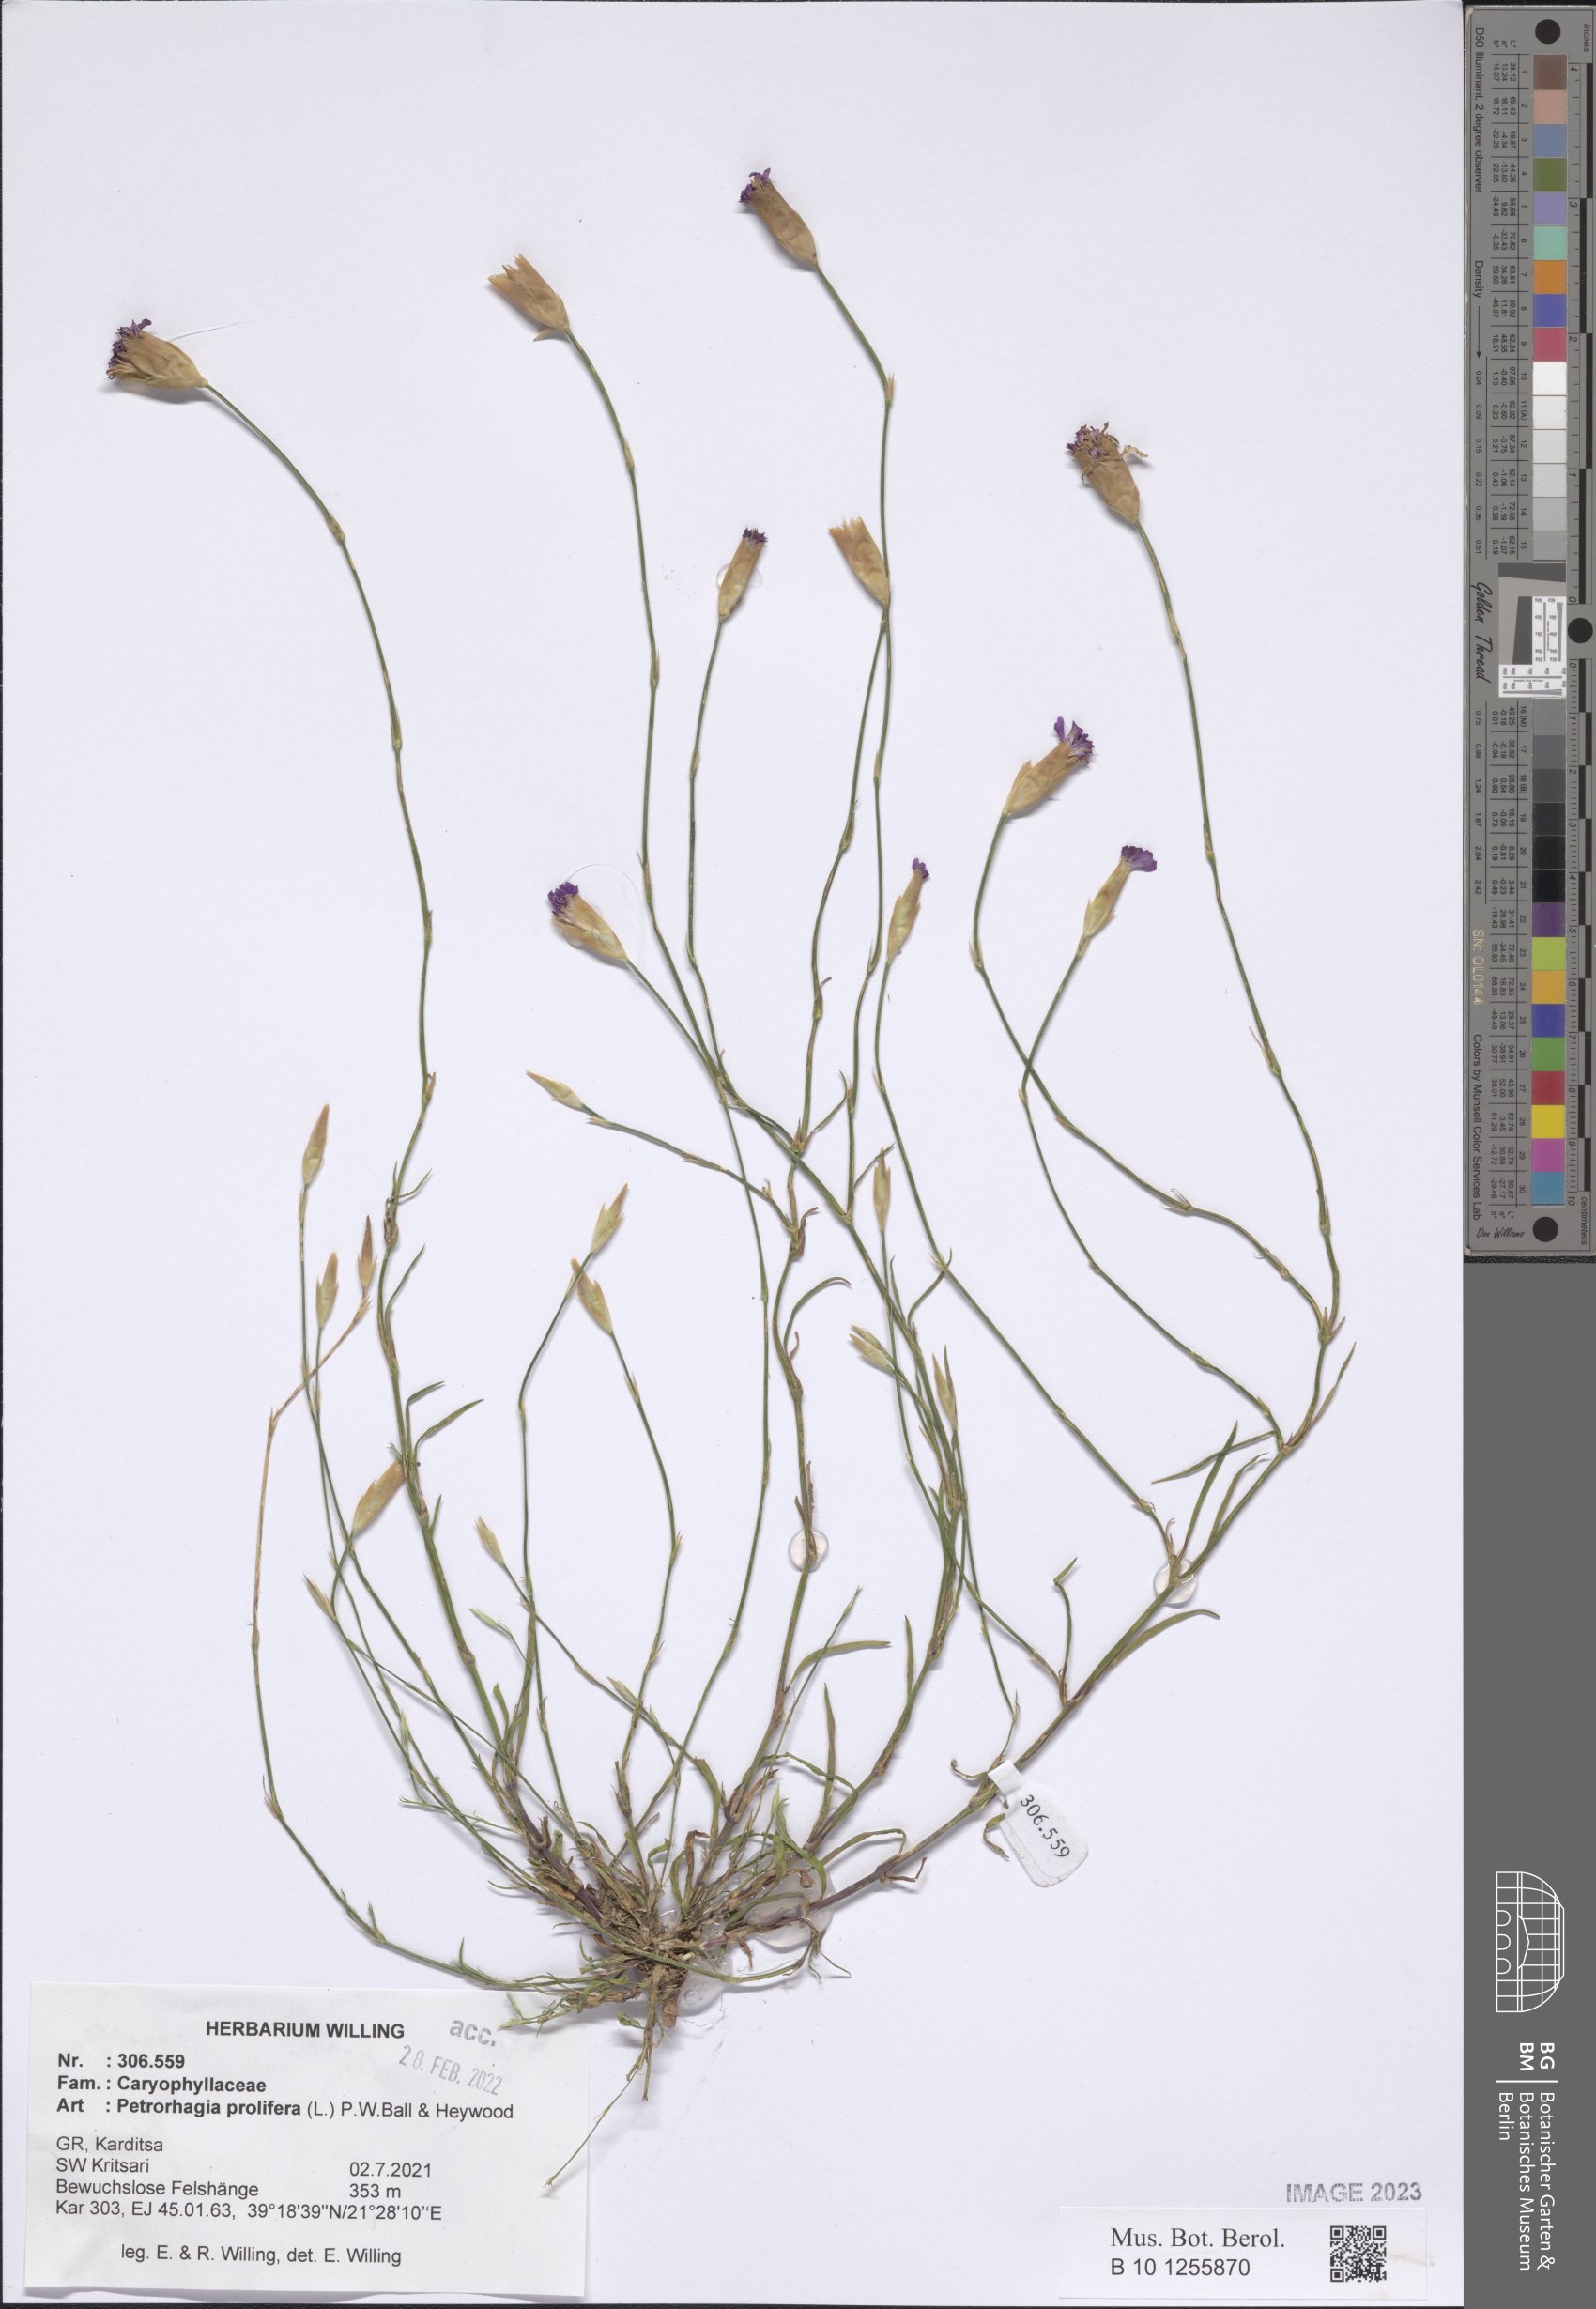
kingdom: Plantae
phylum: Tracheophyta
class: Magnoliopsida
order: Caryophyllales
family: Caryophyllaceae
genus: Petrorhagia
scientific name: Petrorhagia prolifera
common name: Proliferous pink
